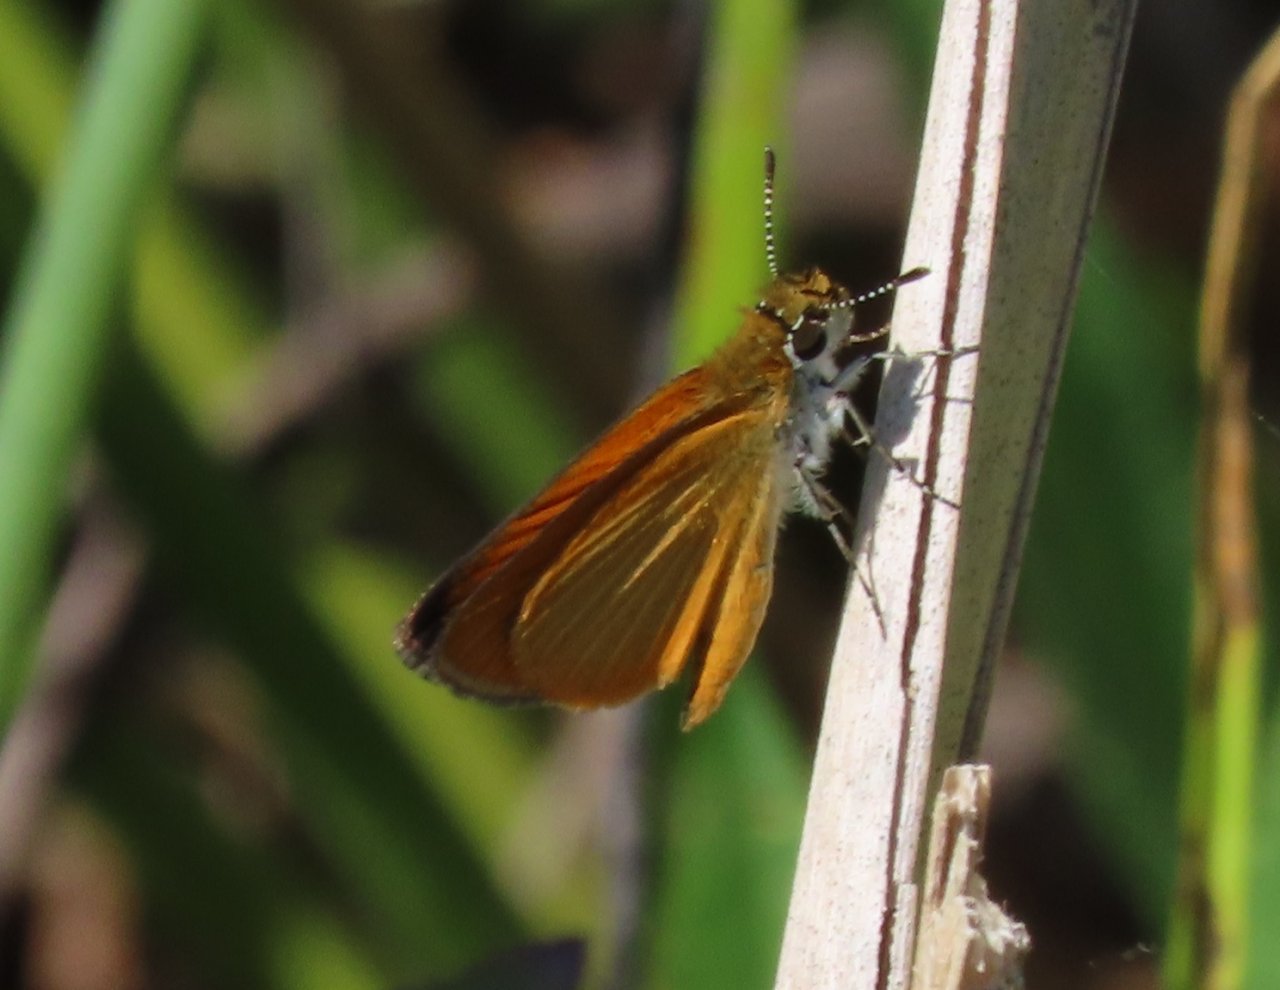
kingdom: Animalia
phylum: Arthropoda
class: Insecta
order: Lepidoptera
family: Hesperiidae
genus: Ancyloxypha
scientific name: Ancyloxypha numitor
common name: Least Skipper
